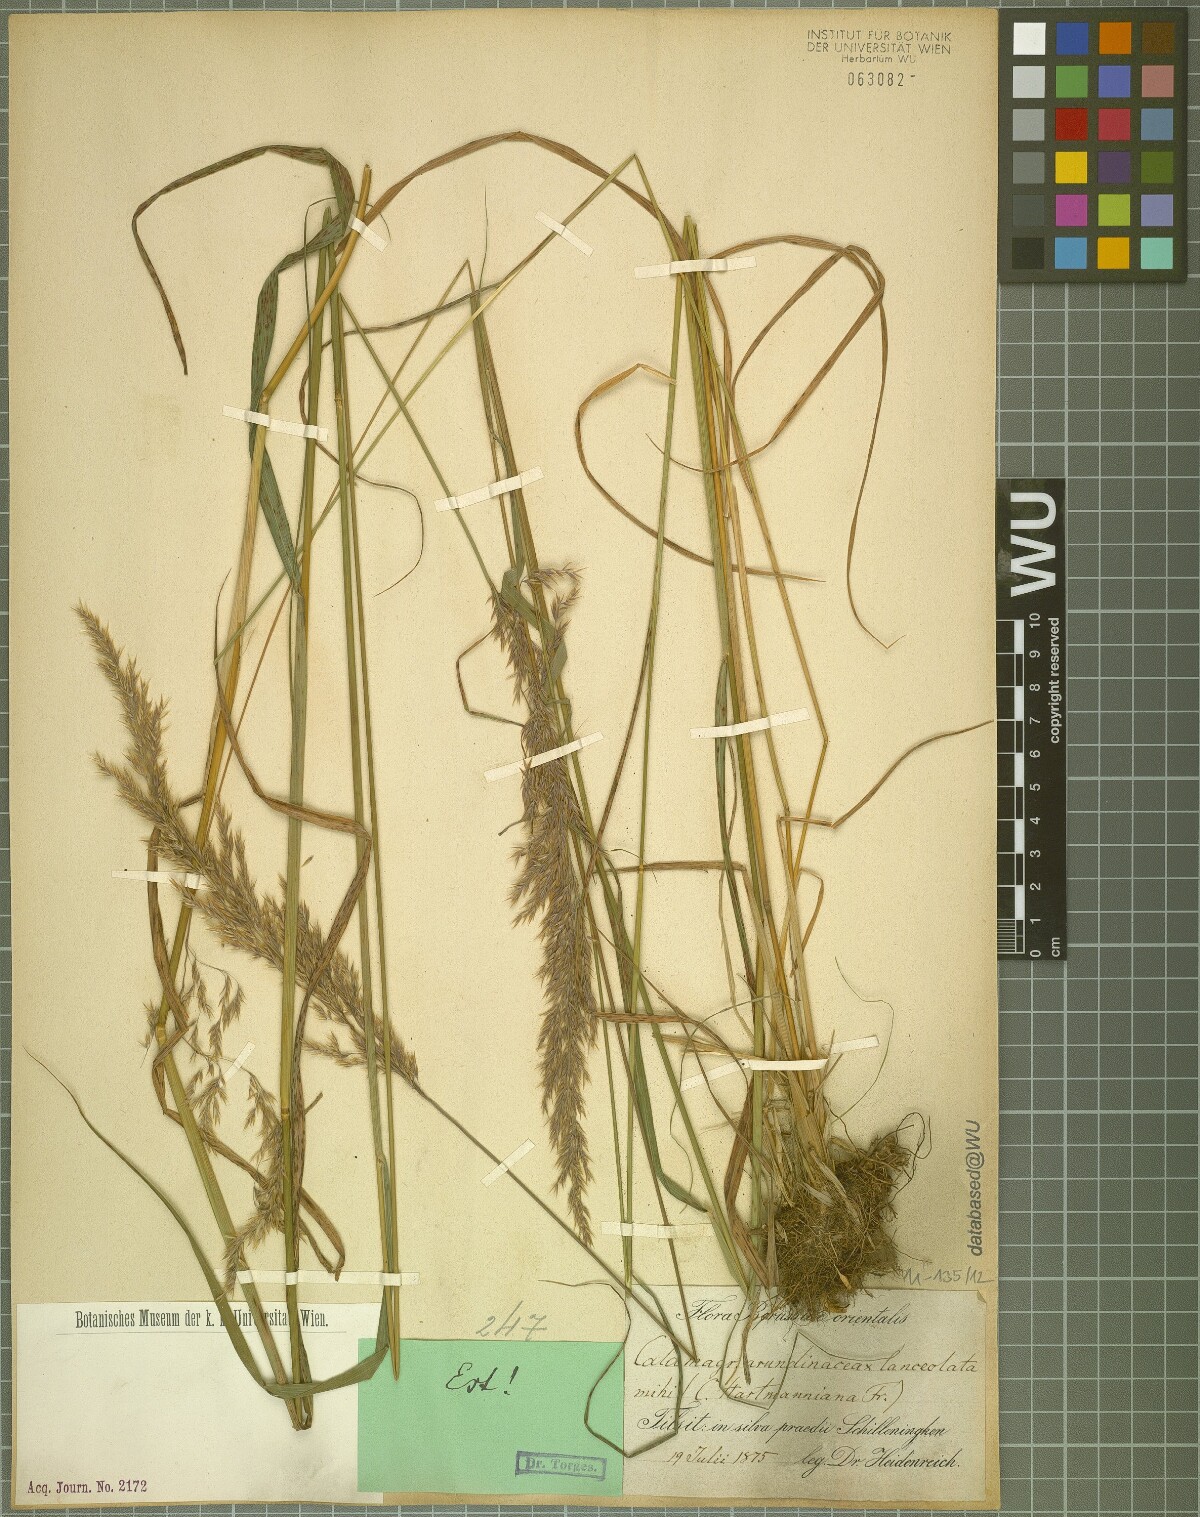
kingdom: Plantae
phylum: Tracheophyta
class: Liliopsida
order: Poales
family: Poaceae
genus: Calamagrostis
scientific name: Calamagrostis
